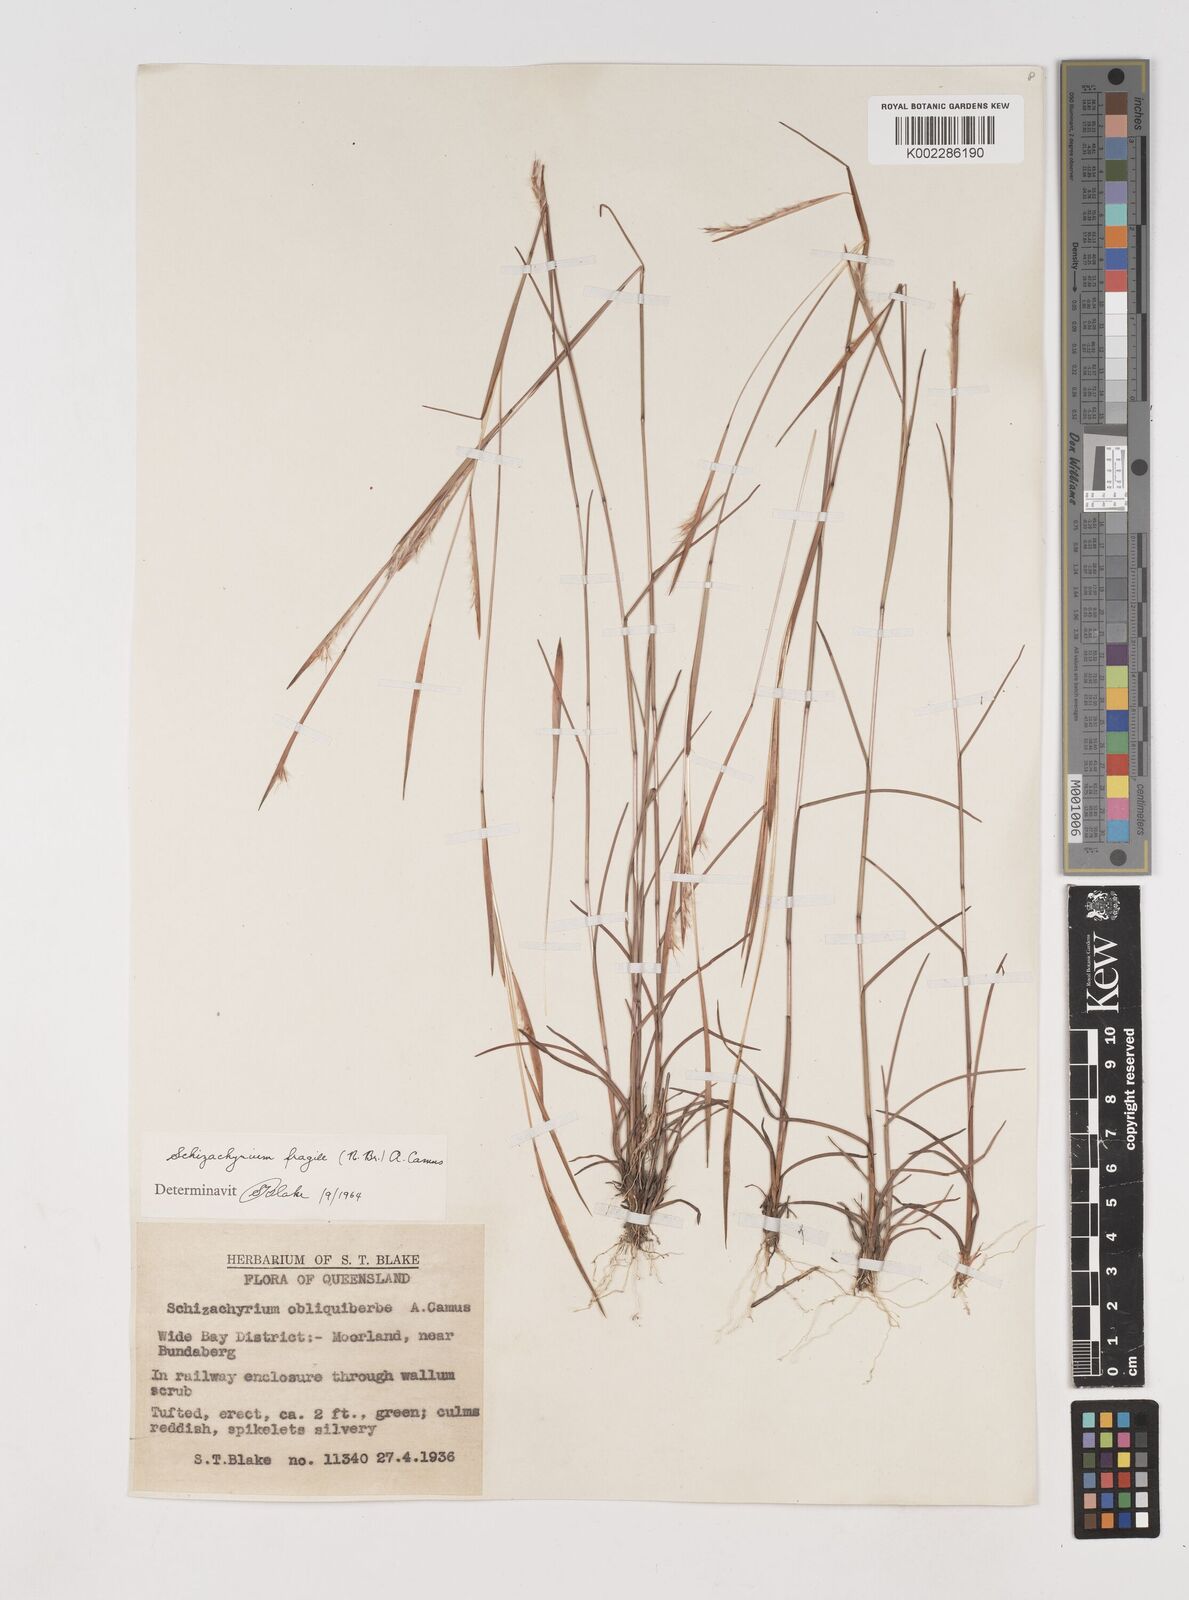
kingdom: Plantae
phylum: Tracheophyta
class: Liliopsida
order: Poales
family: Poaceae
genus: Schizachyrium
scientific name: Schizachyrium fragile
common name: Red spathe grass
